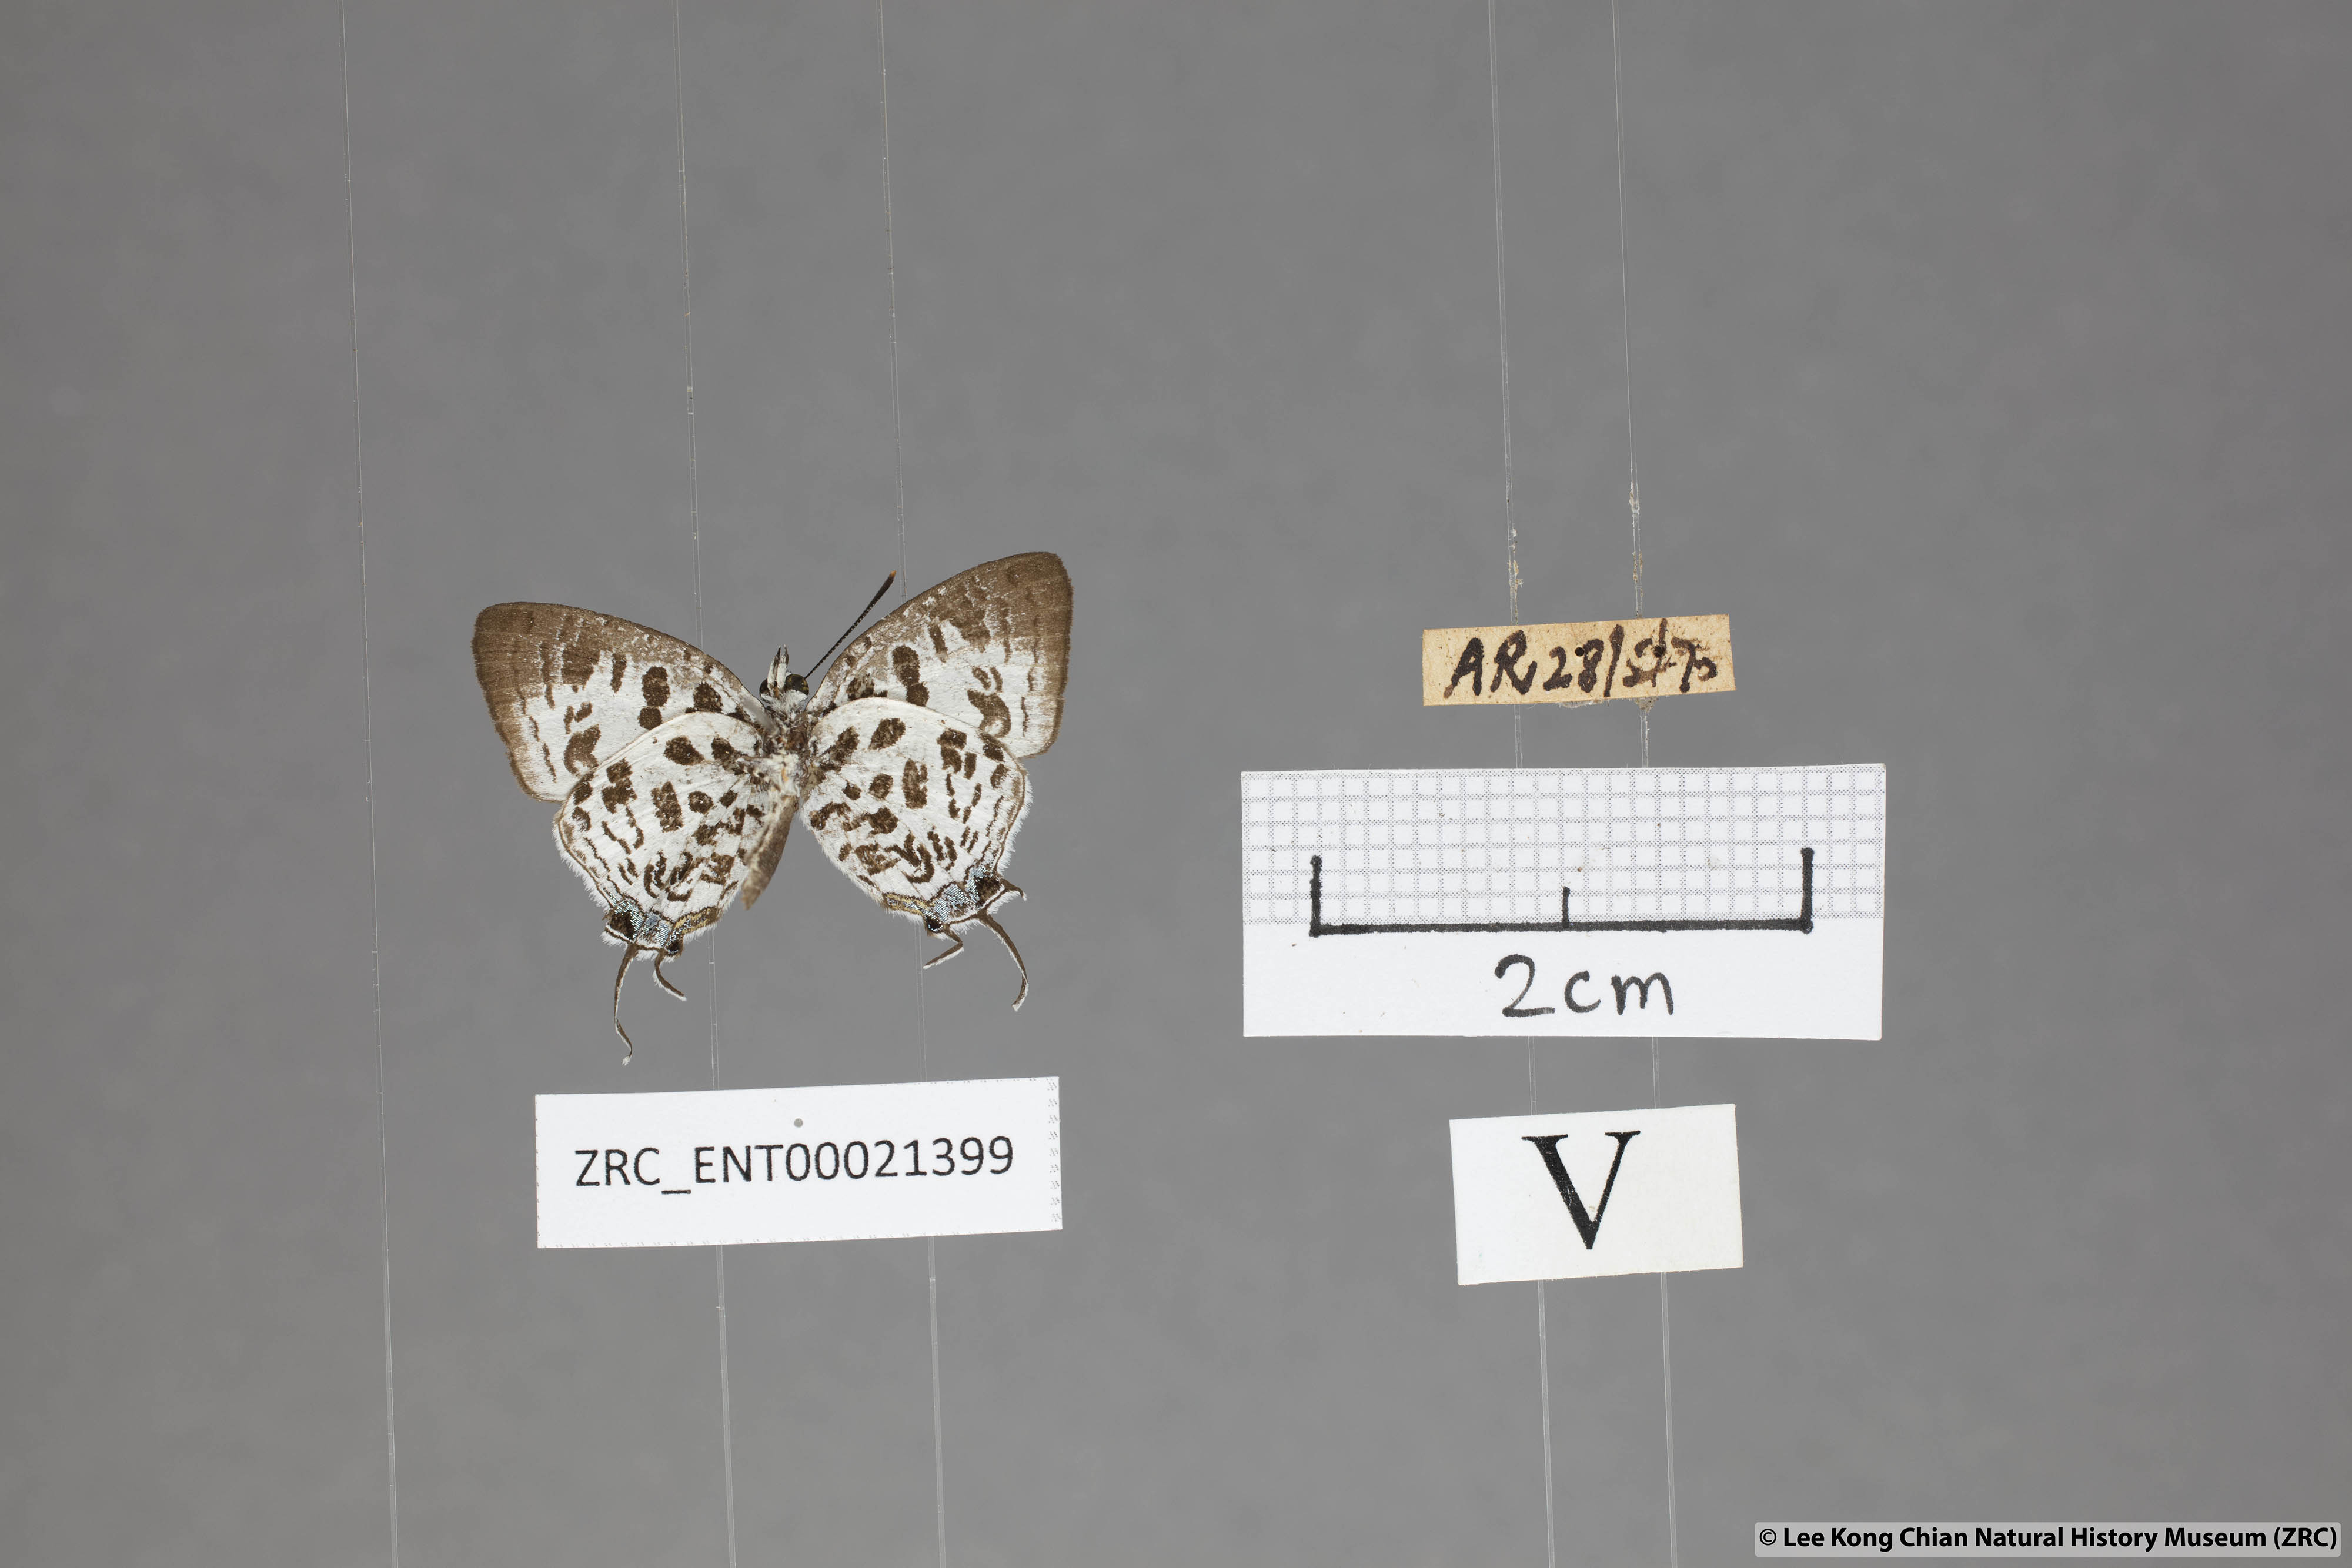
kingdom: Animalia
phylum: Arthropoda
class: Insecta
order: Lepidoptera
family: Lycaenidae
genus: Drupadia
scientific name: Drupadia scaeva
